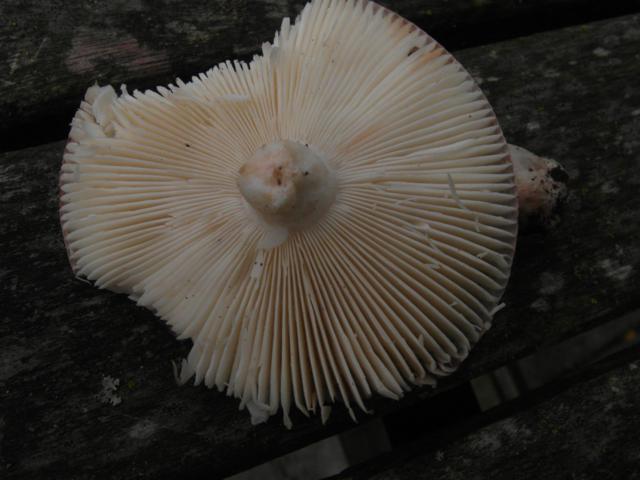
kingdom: Fungi
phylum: Basidiomycota
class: Agaricomycetes
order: Russulales
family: Russulaceae
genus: Russula
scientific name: Russula brunneoviolacea
